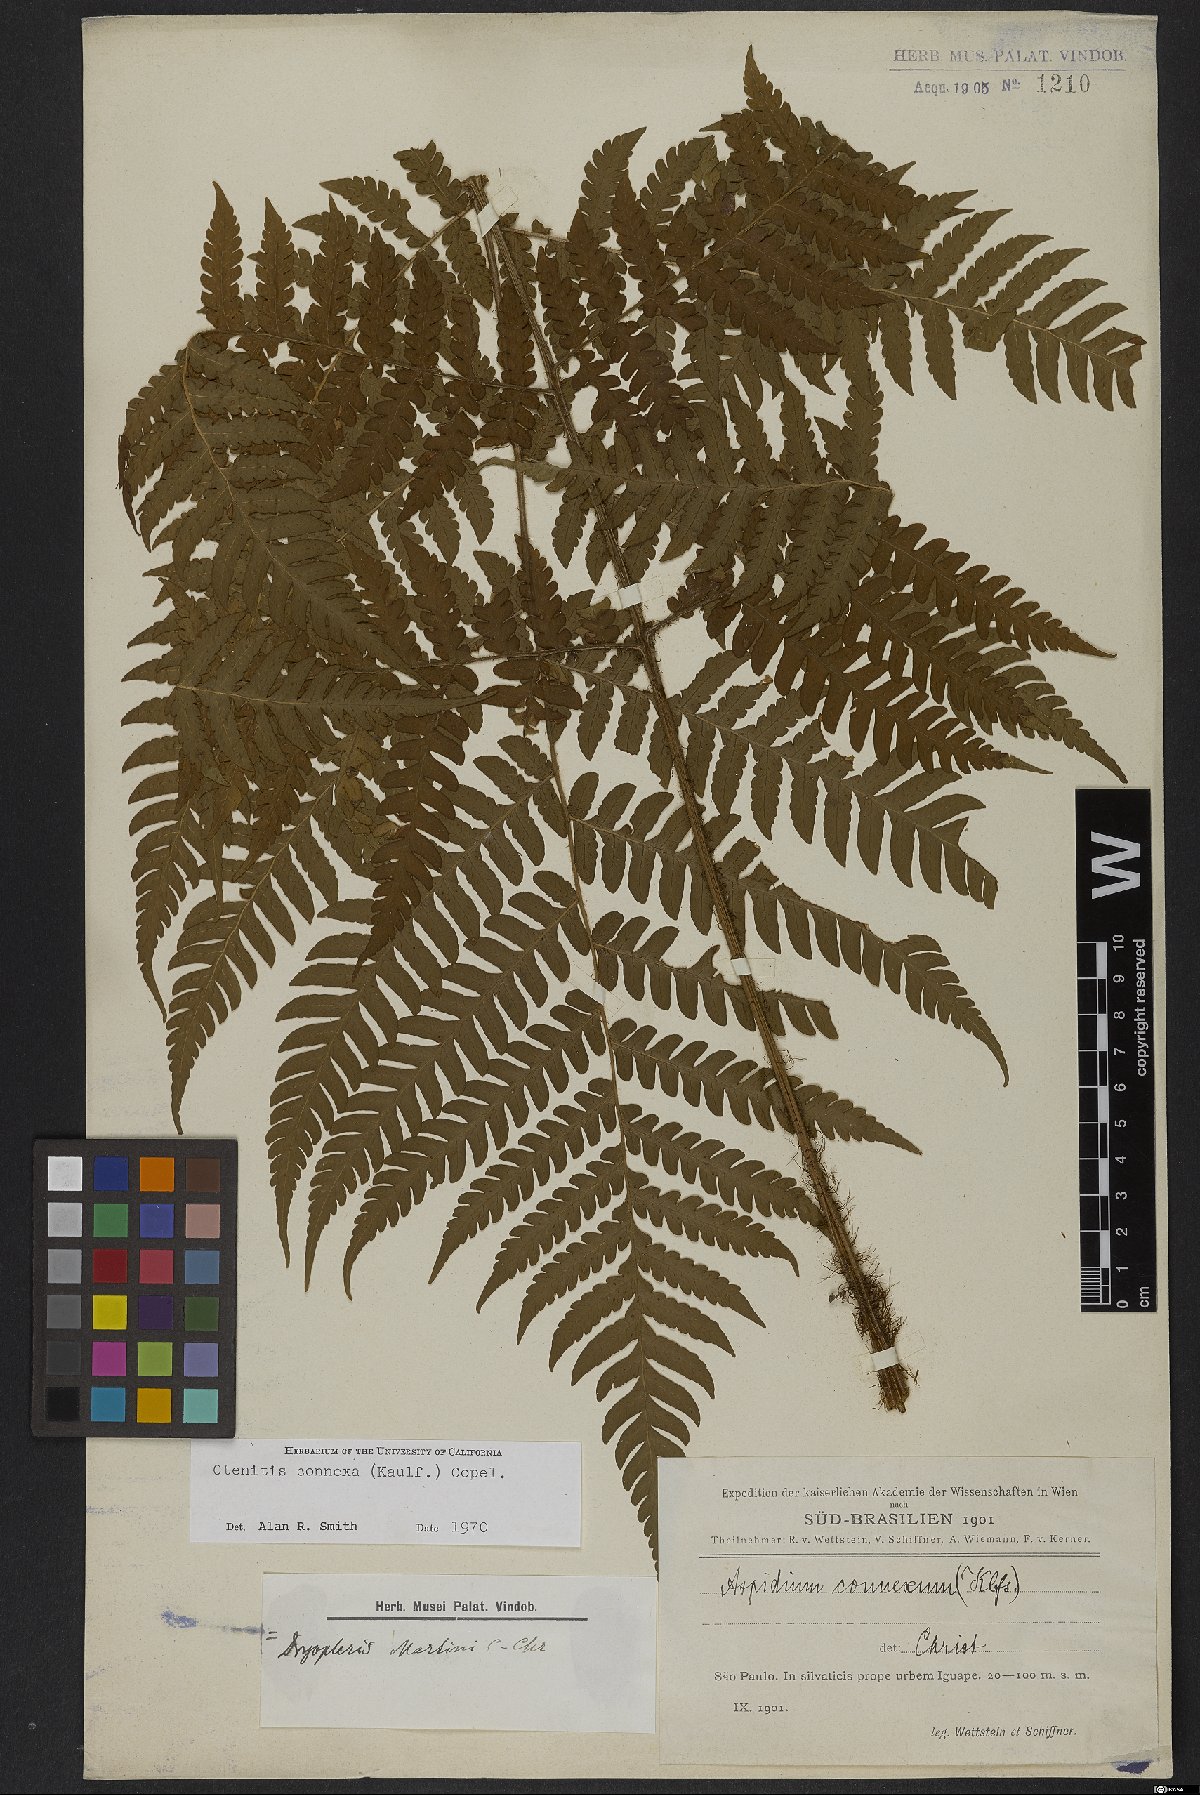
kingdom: Plantae
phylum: Tracheophyta
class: Polypodiopsida
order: Polypodiales
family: Dryopteridaceae
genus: Megalastrum
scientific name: Megalastrum connexum
